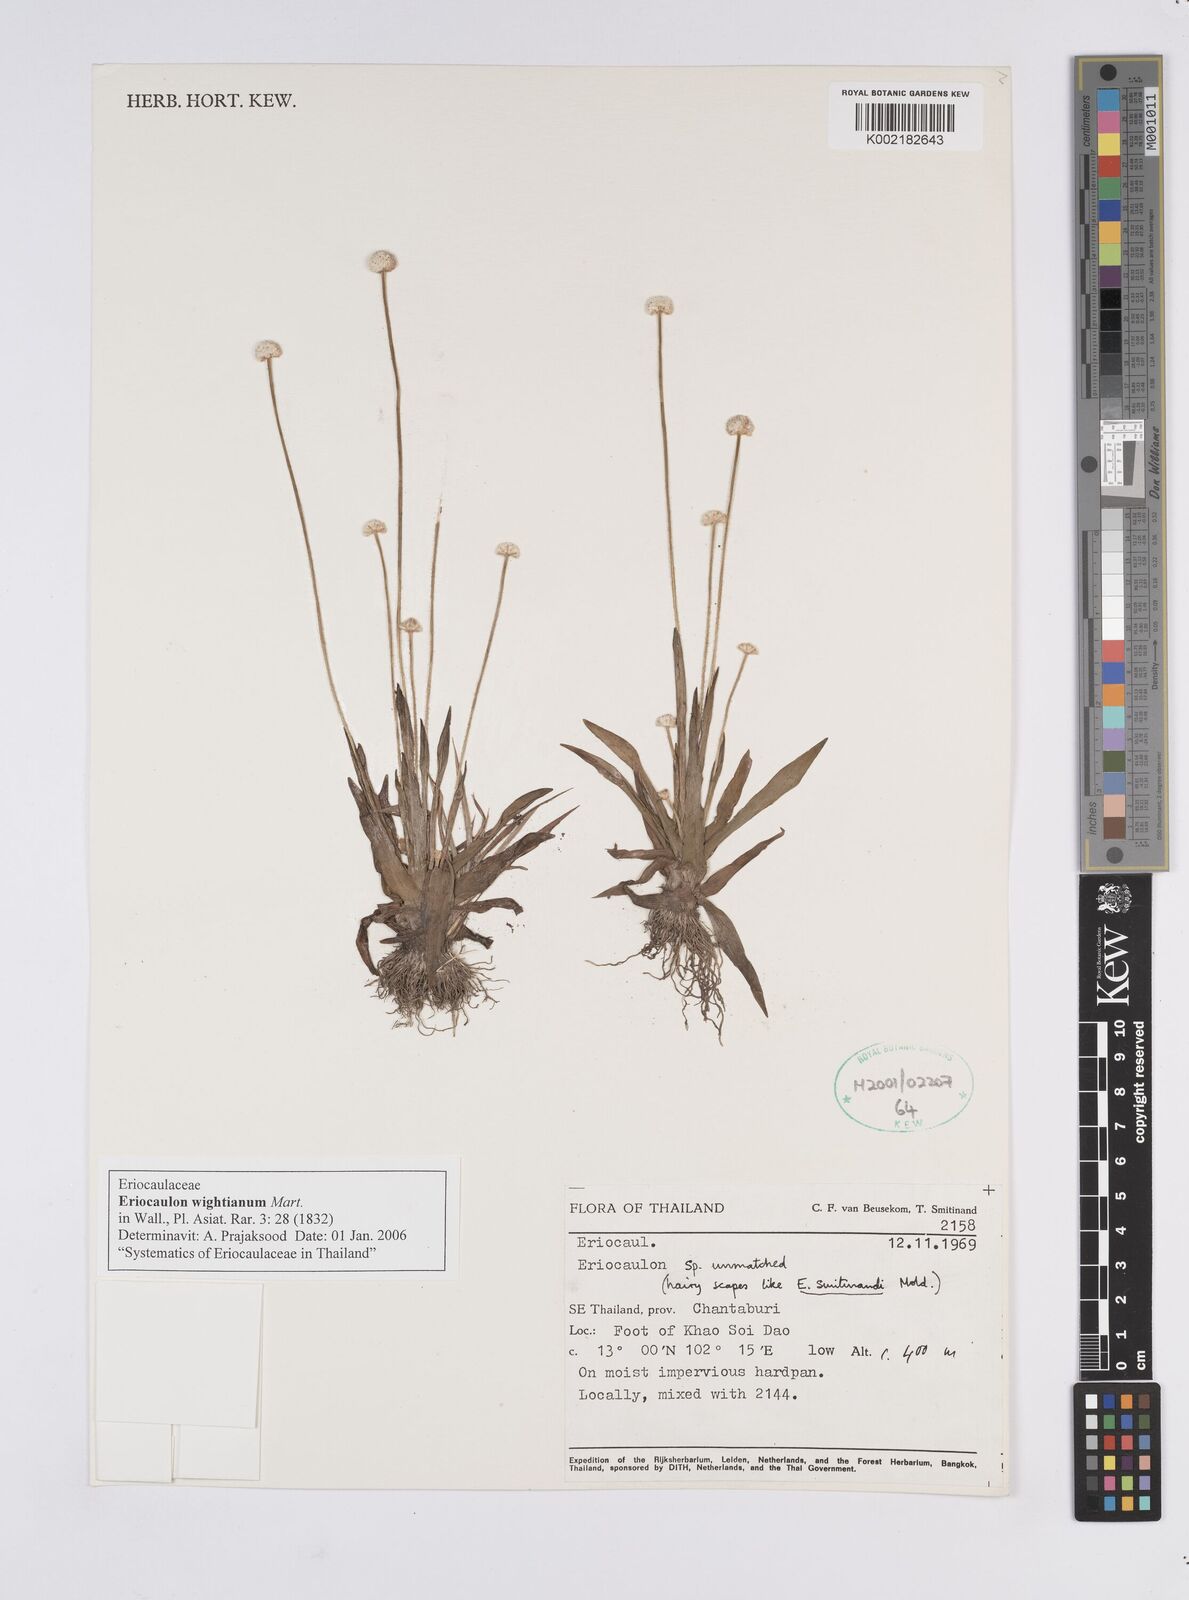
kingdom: Plantae
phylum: Tracheophyta
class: Liliopsida
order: Poales
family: Eriocaulaceae
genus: Eriocaulon
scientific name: Eriocaulon wightianum
